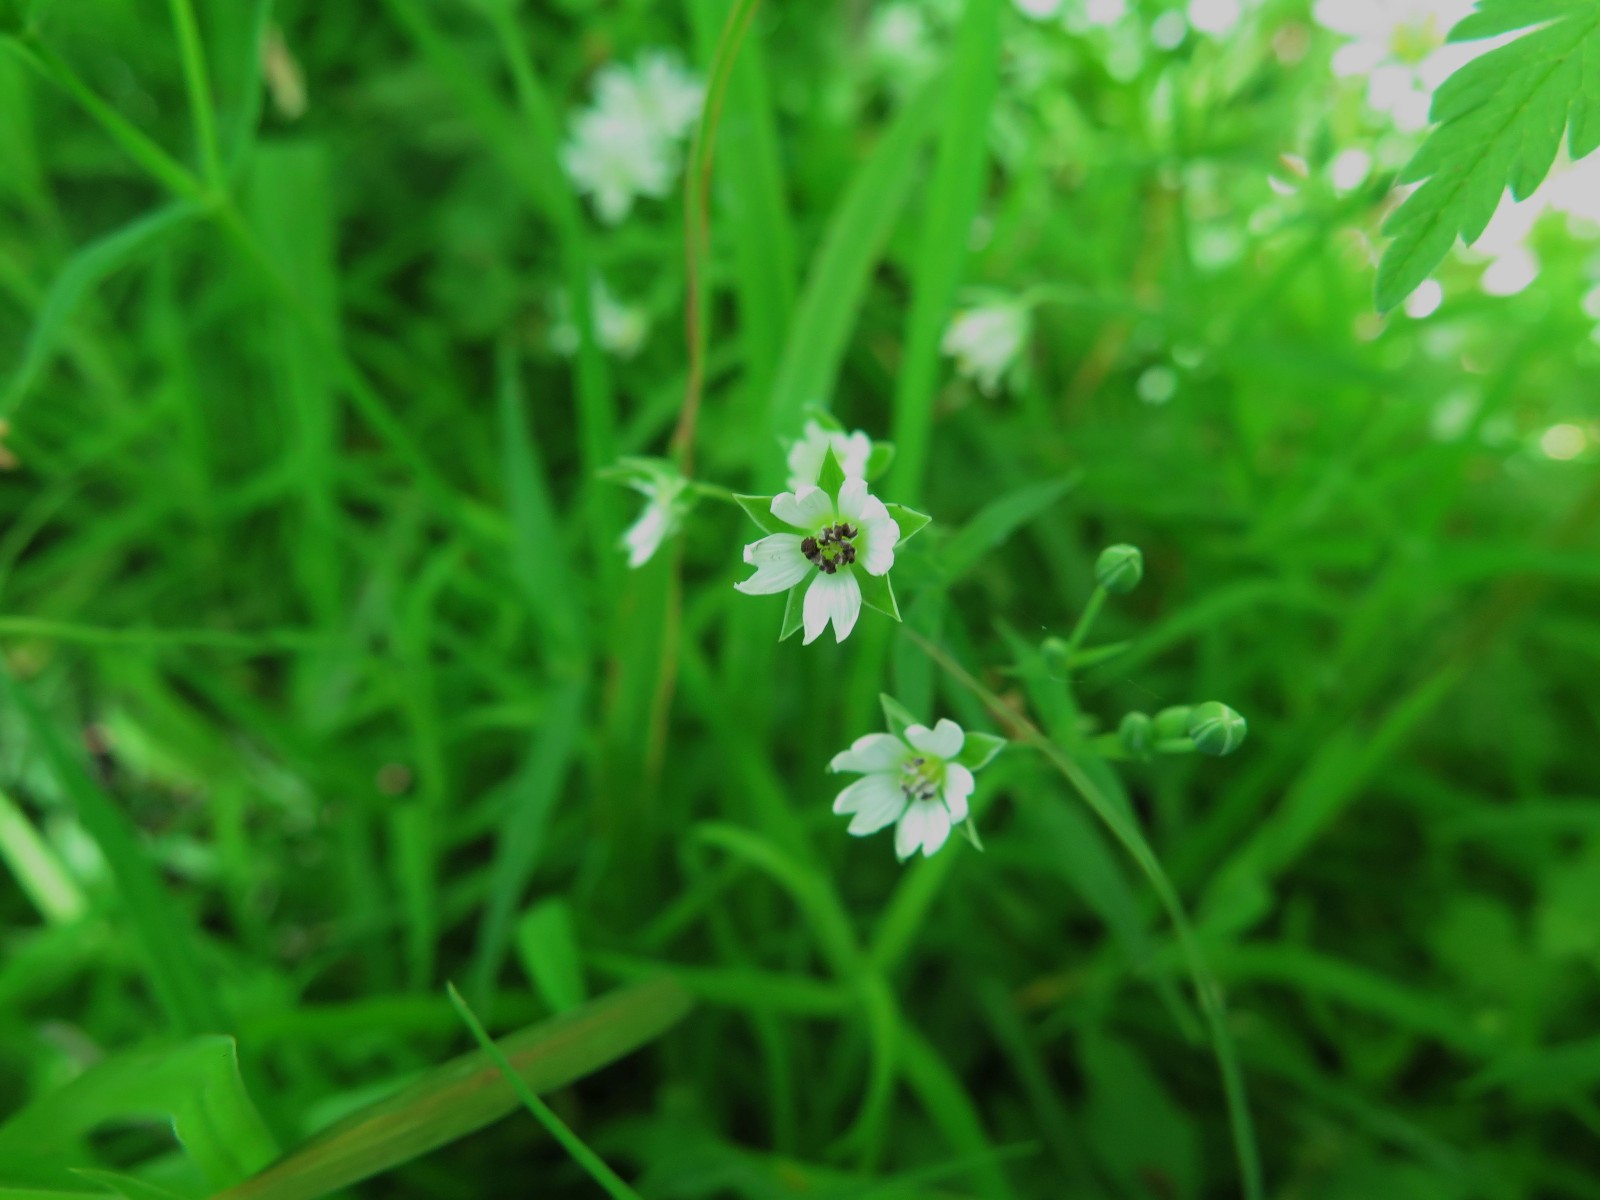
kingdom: Fungi
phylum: Basidiomycota
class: Microbotryomycetes
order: Microbotryales
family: Microbotryaceae
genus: Microbotryum
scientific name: Microbotryum stellariae
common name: fladstjerne-støvbladrust
